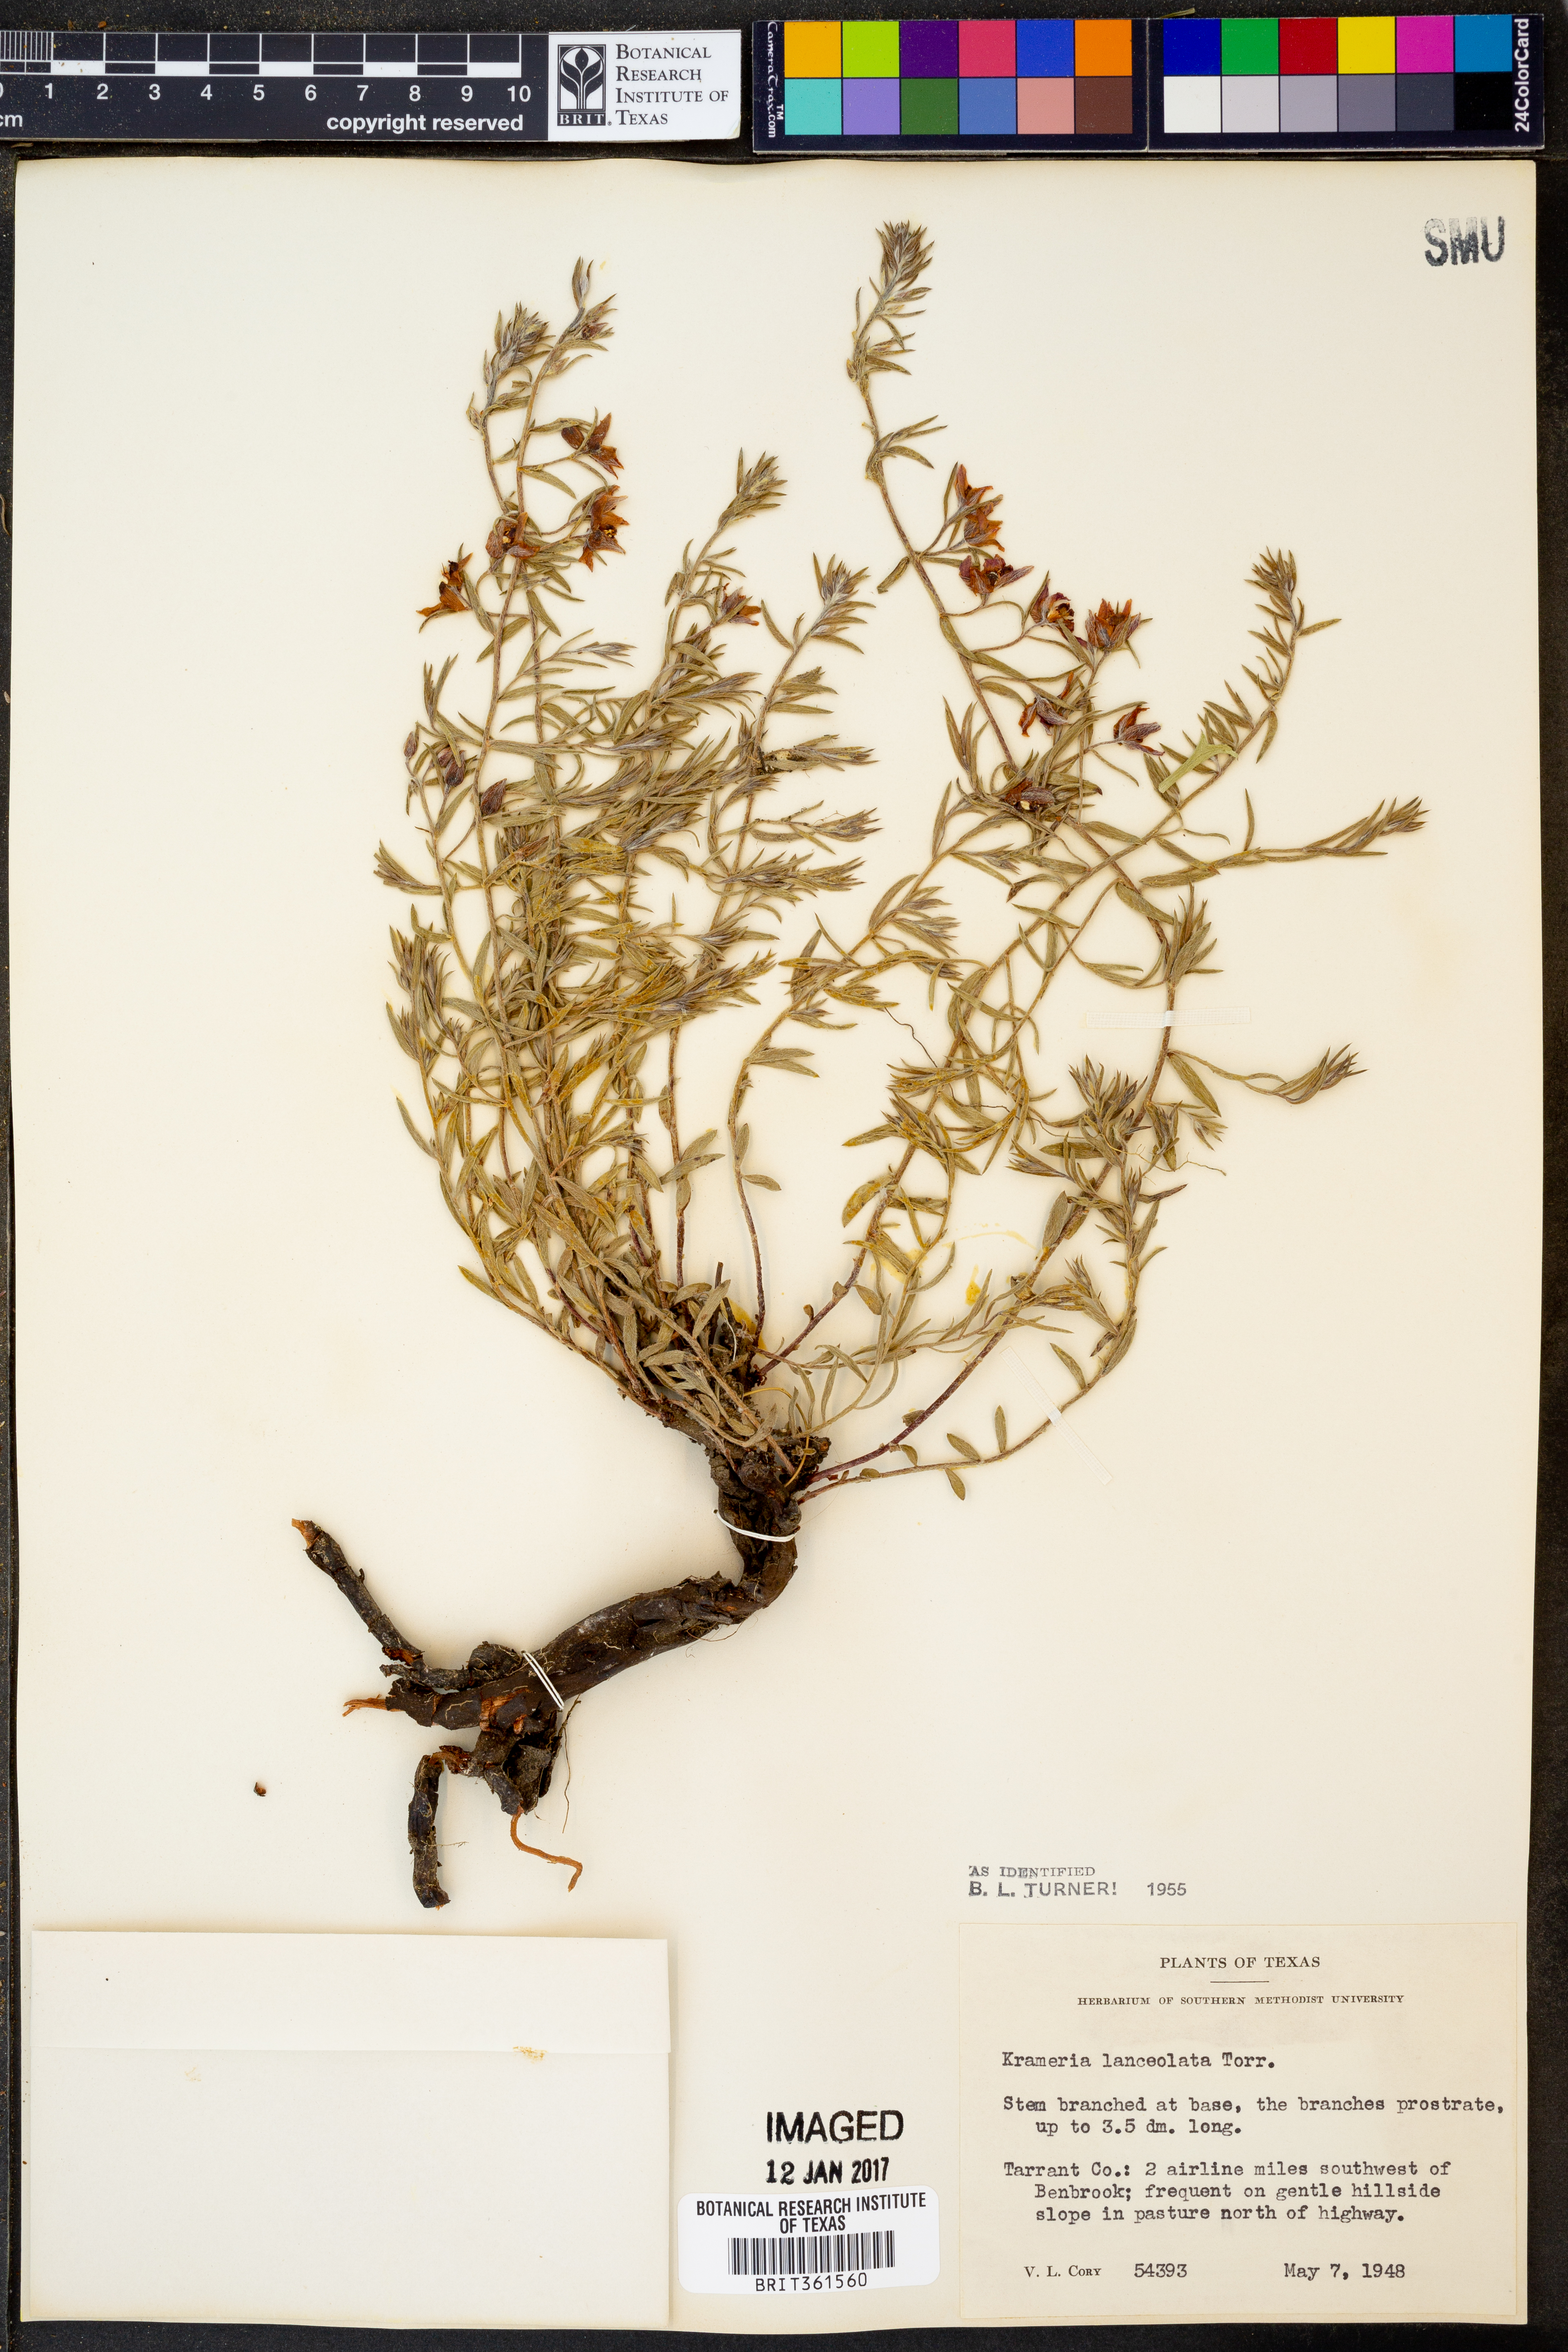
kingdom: Plantae
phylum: Tracheophyta
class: Magnoliopsida
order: Zygophyllales
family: Krameriaceae
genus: Krameria
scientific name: Krameria lanceolata
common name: Ratany
